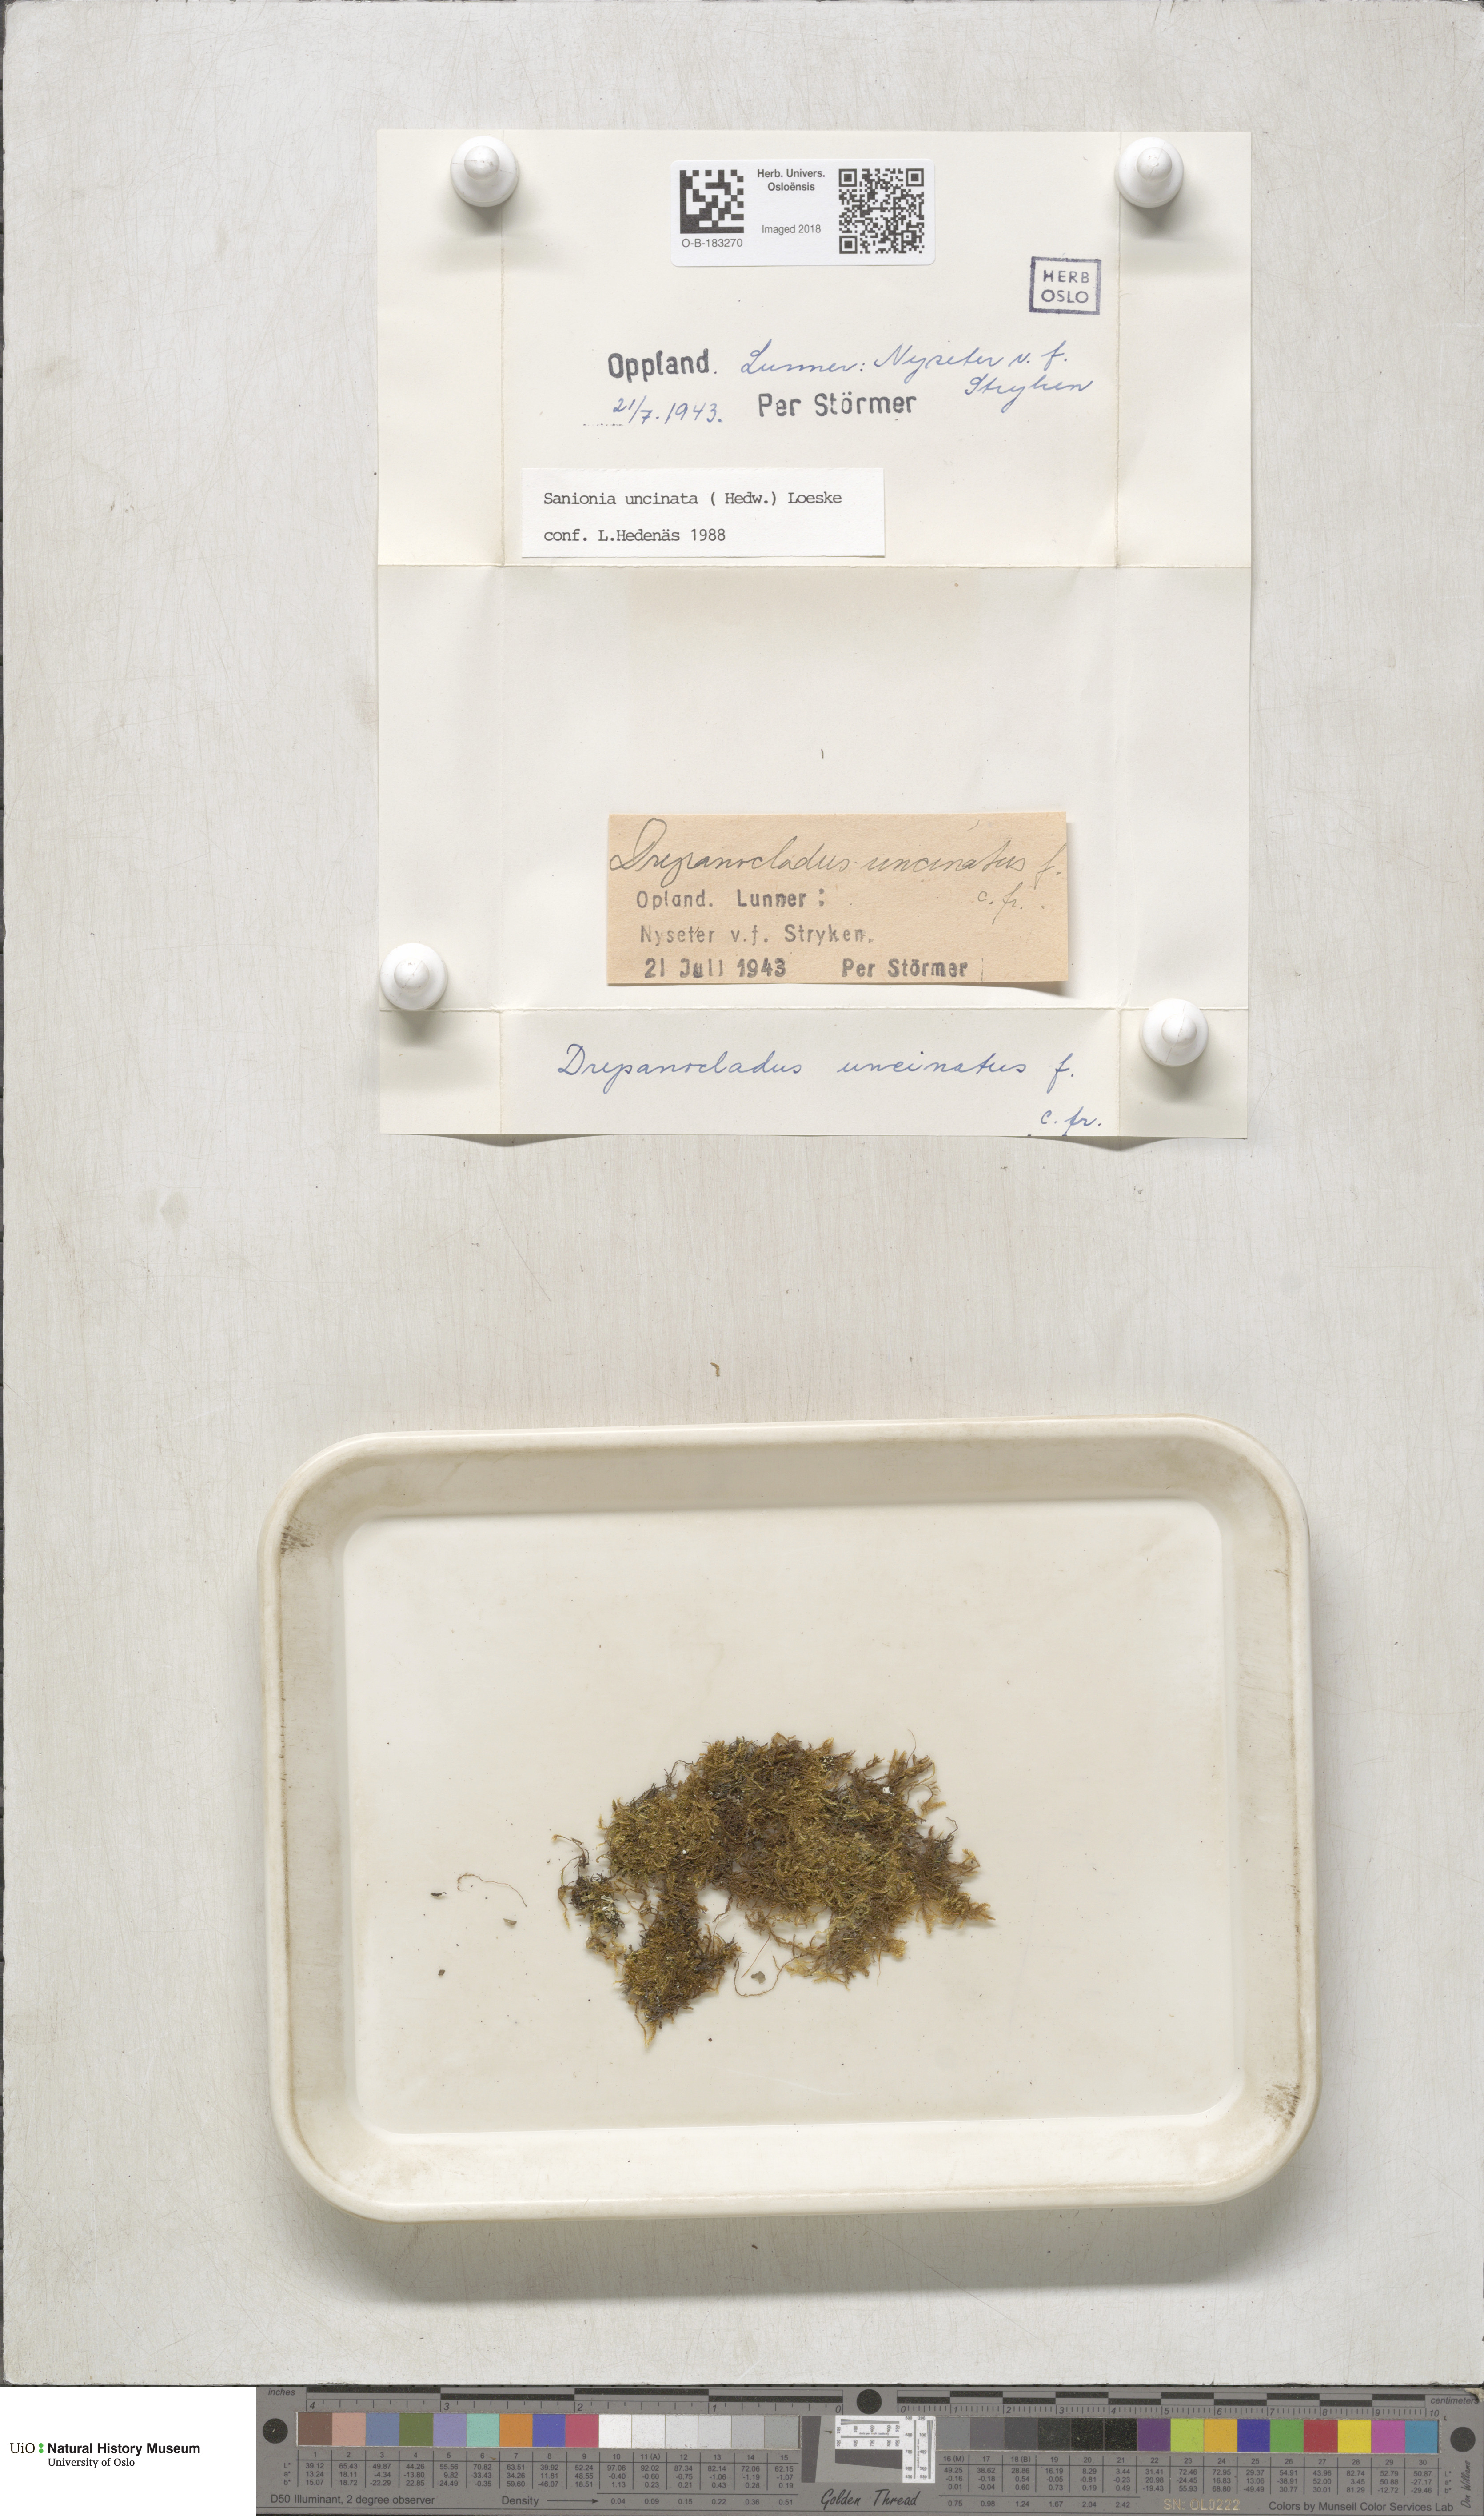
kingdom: Plantae
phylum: Bryophyta
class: Bryopsida
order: Hypnales
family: Scorpidiaceae
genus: Sanionia
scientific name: Sanionia uncinata
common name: Sickle moss
